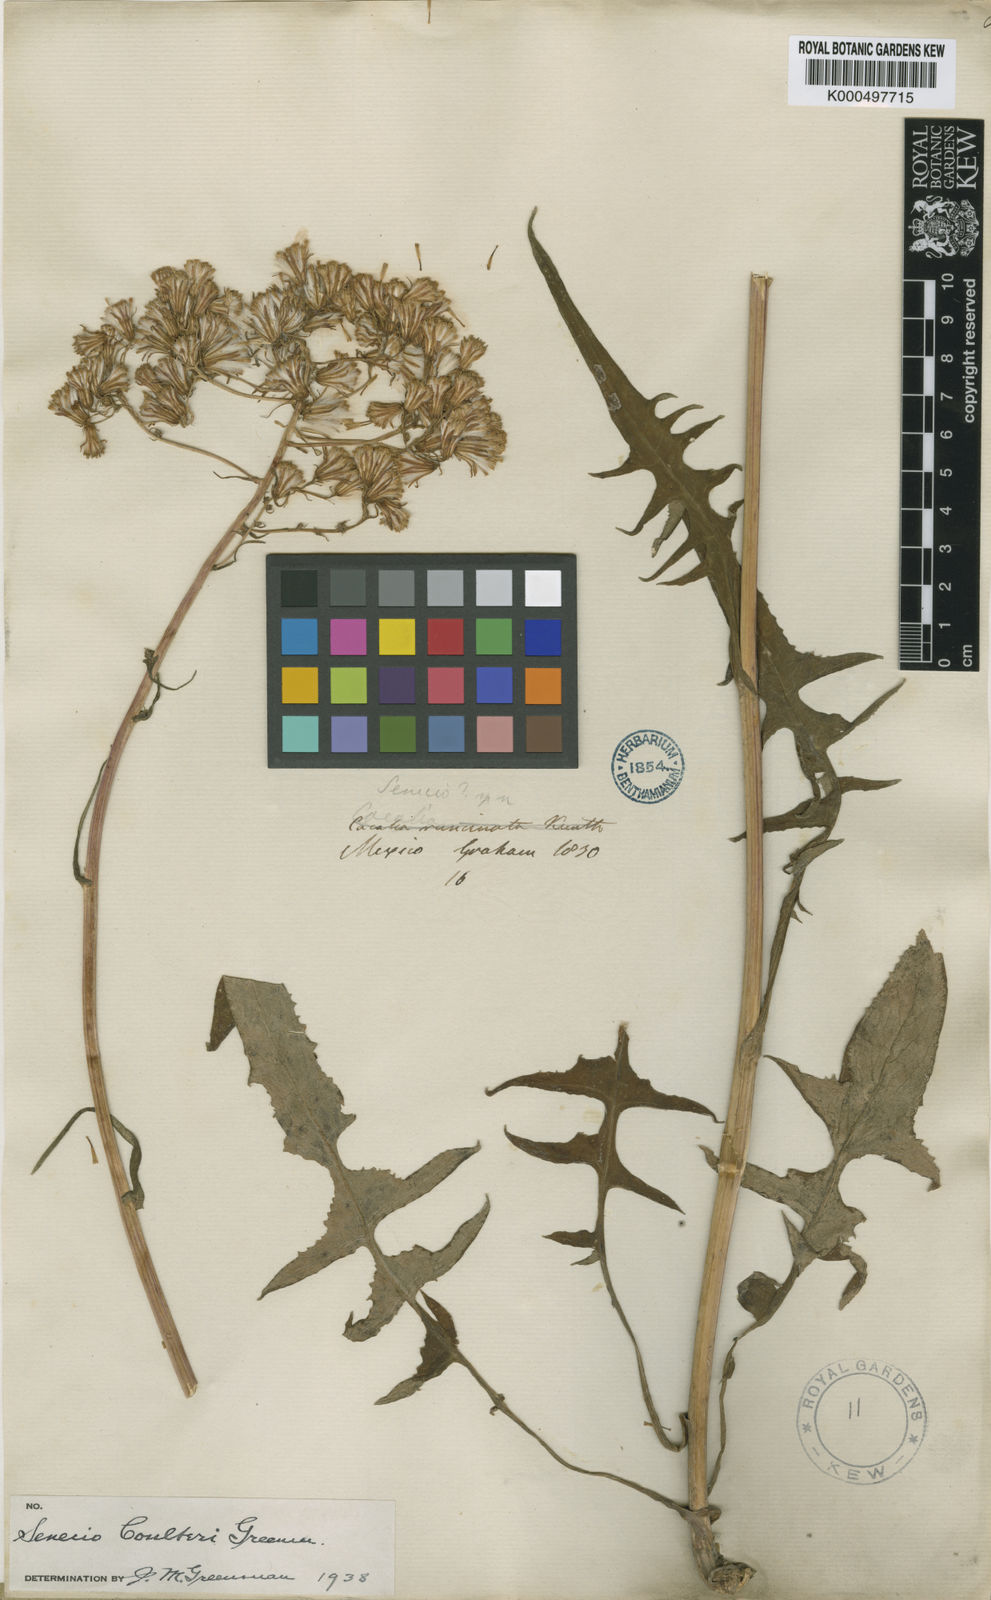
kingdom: Plantae
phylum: Tracheophyta
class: Magnoliopsida
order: Asterales
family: Asteraceae
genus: Senecio
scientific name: Senecio callosus
